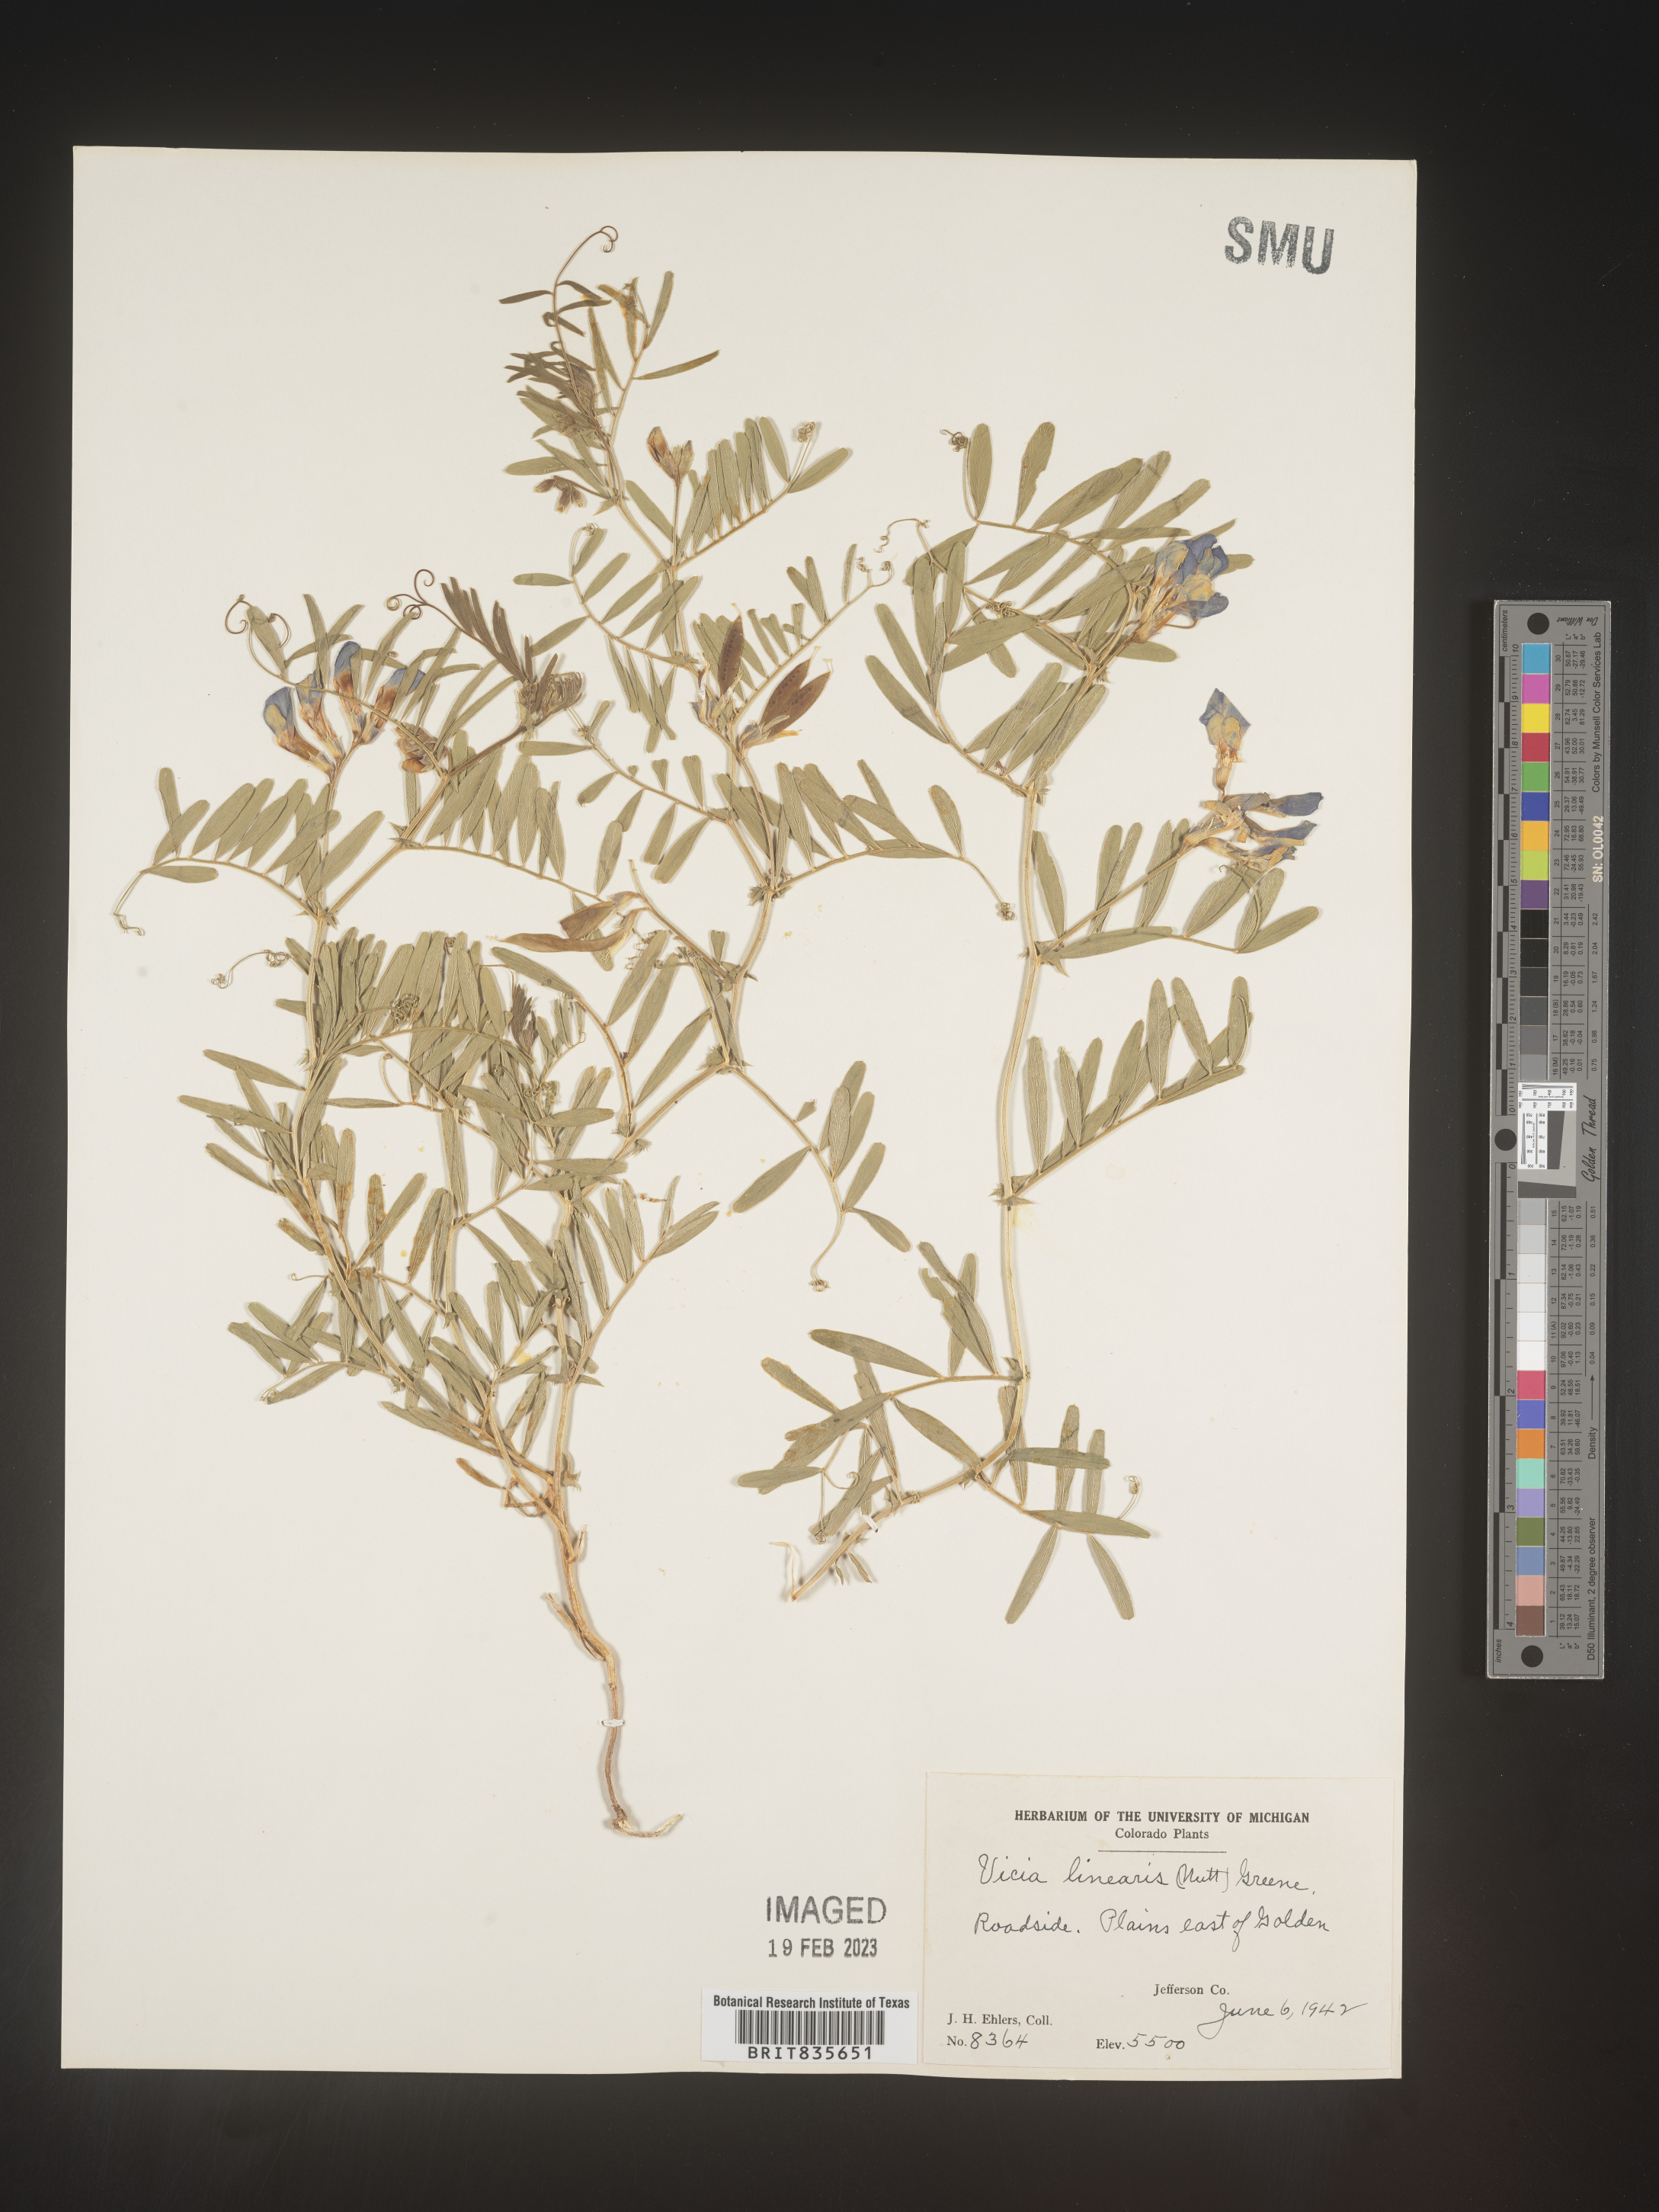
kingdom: Plantae
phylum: Tracheophyta
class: Magnoliopsida
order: Fabales
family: Fabaceae
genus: Vicia
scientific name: Vicia americana
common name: American vetch
